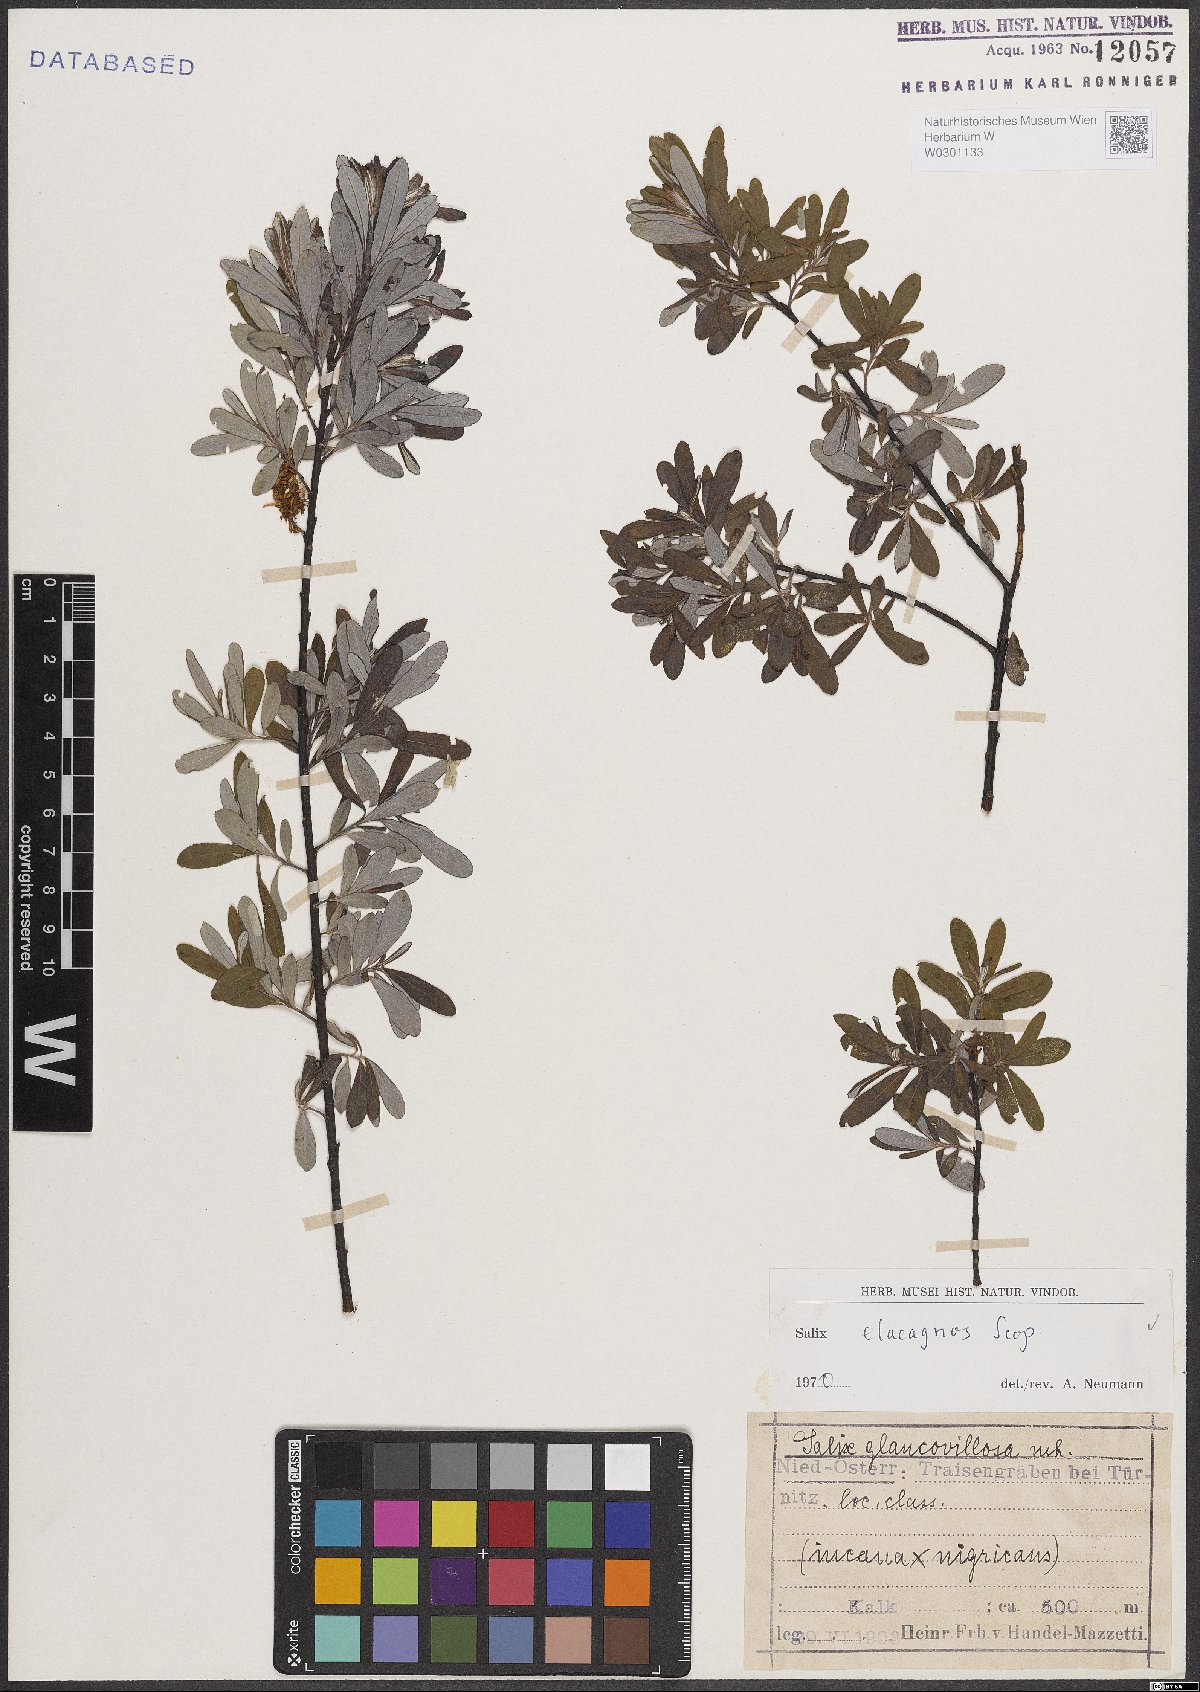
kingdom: Plantae
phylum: Tracheophyta
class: Magnoliopsida
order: Malpighiales
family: Salicaceae
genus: Salix
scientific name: Salix eleagnos
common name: Elaeagnus willow
